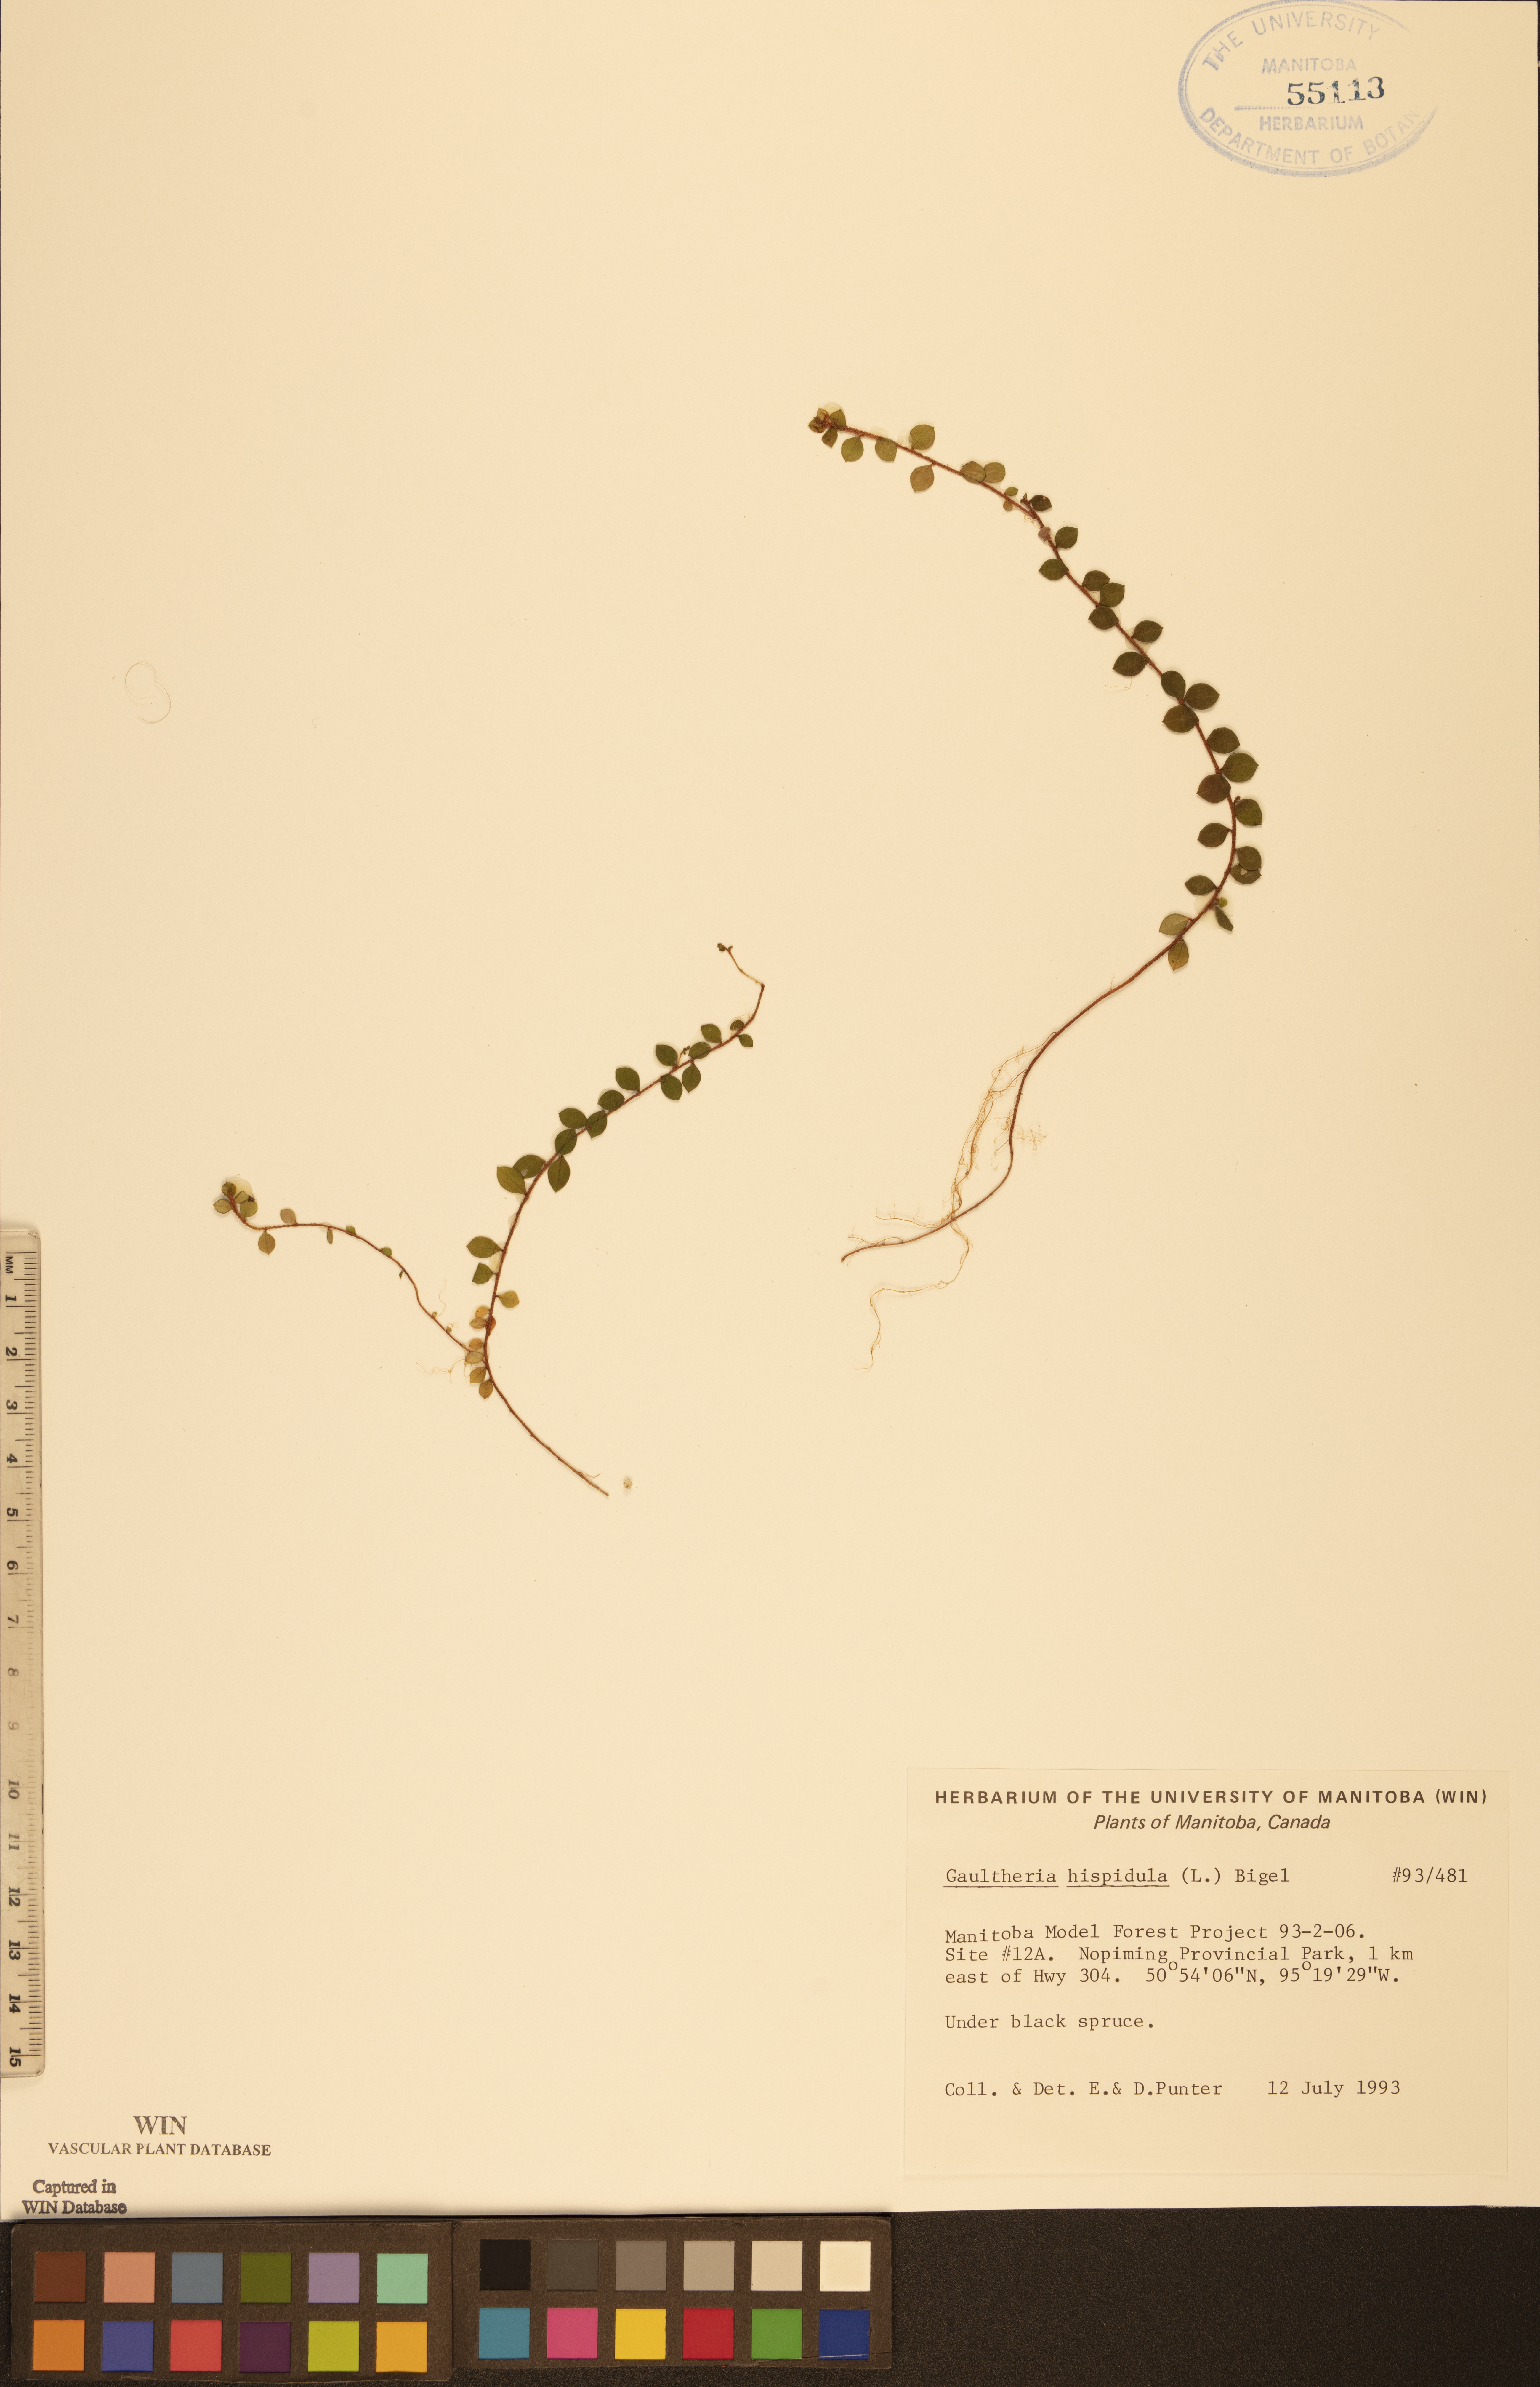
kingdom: Plantae
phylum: Tracheophyta
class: Magnoliopsida
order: Ericales
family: Ericaceae
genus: Gaultheria
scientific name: Gaultheria hispidula
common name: Cancer wintergreen
